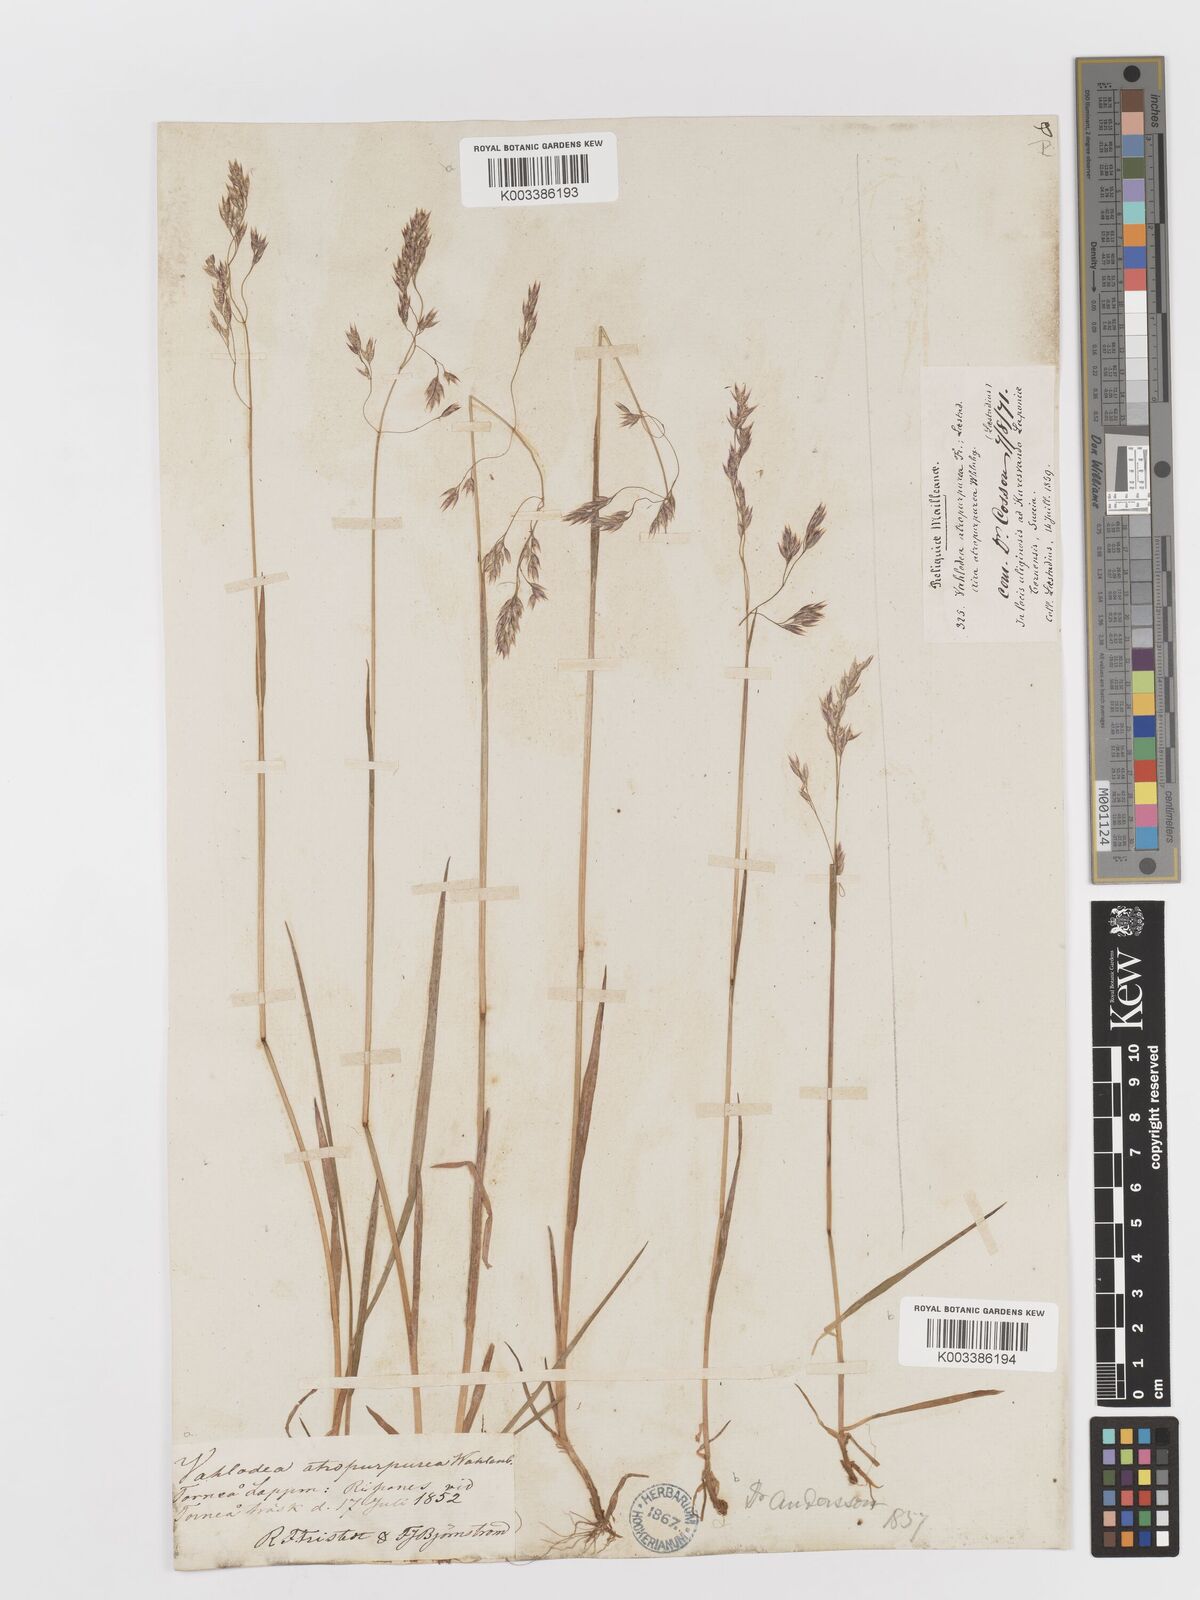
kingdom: Plantae
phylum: Tracheophyta
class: Liliopsida
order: Poales
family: Poaceae
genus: Vahlodea
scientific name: Vahlodea atropurpurea
